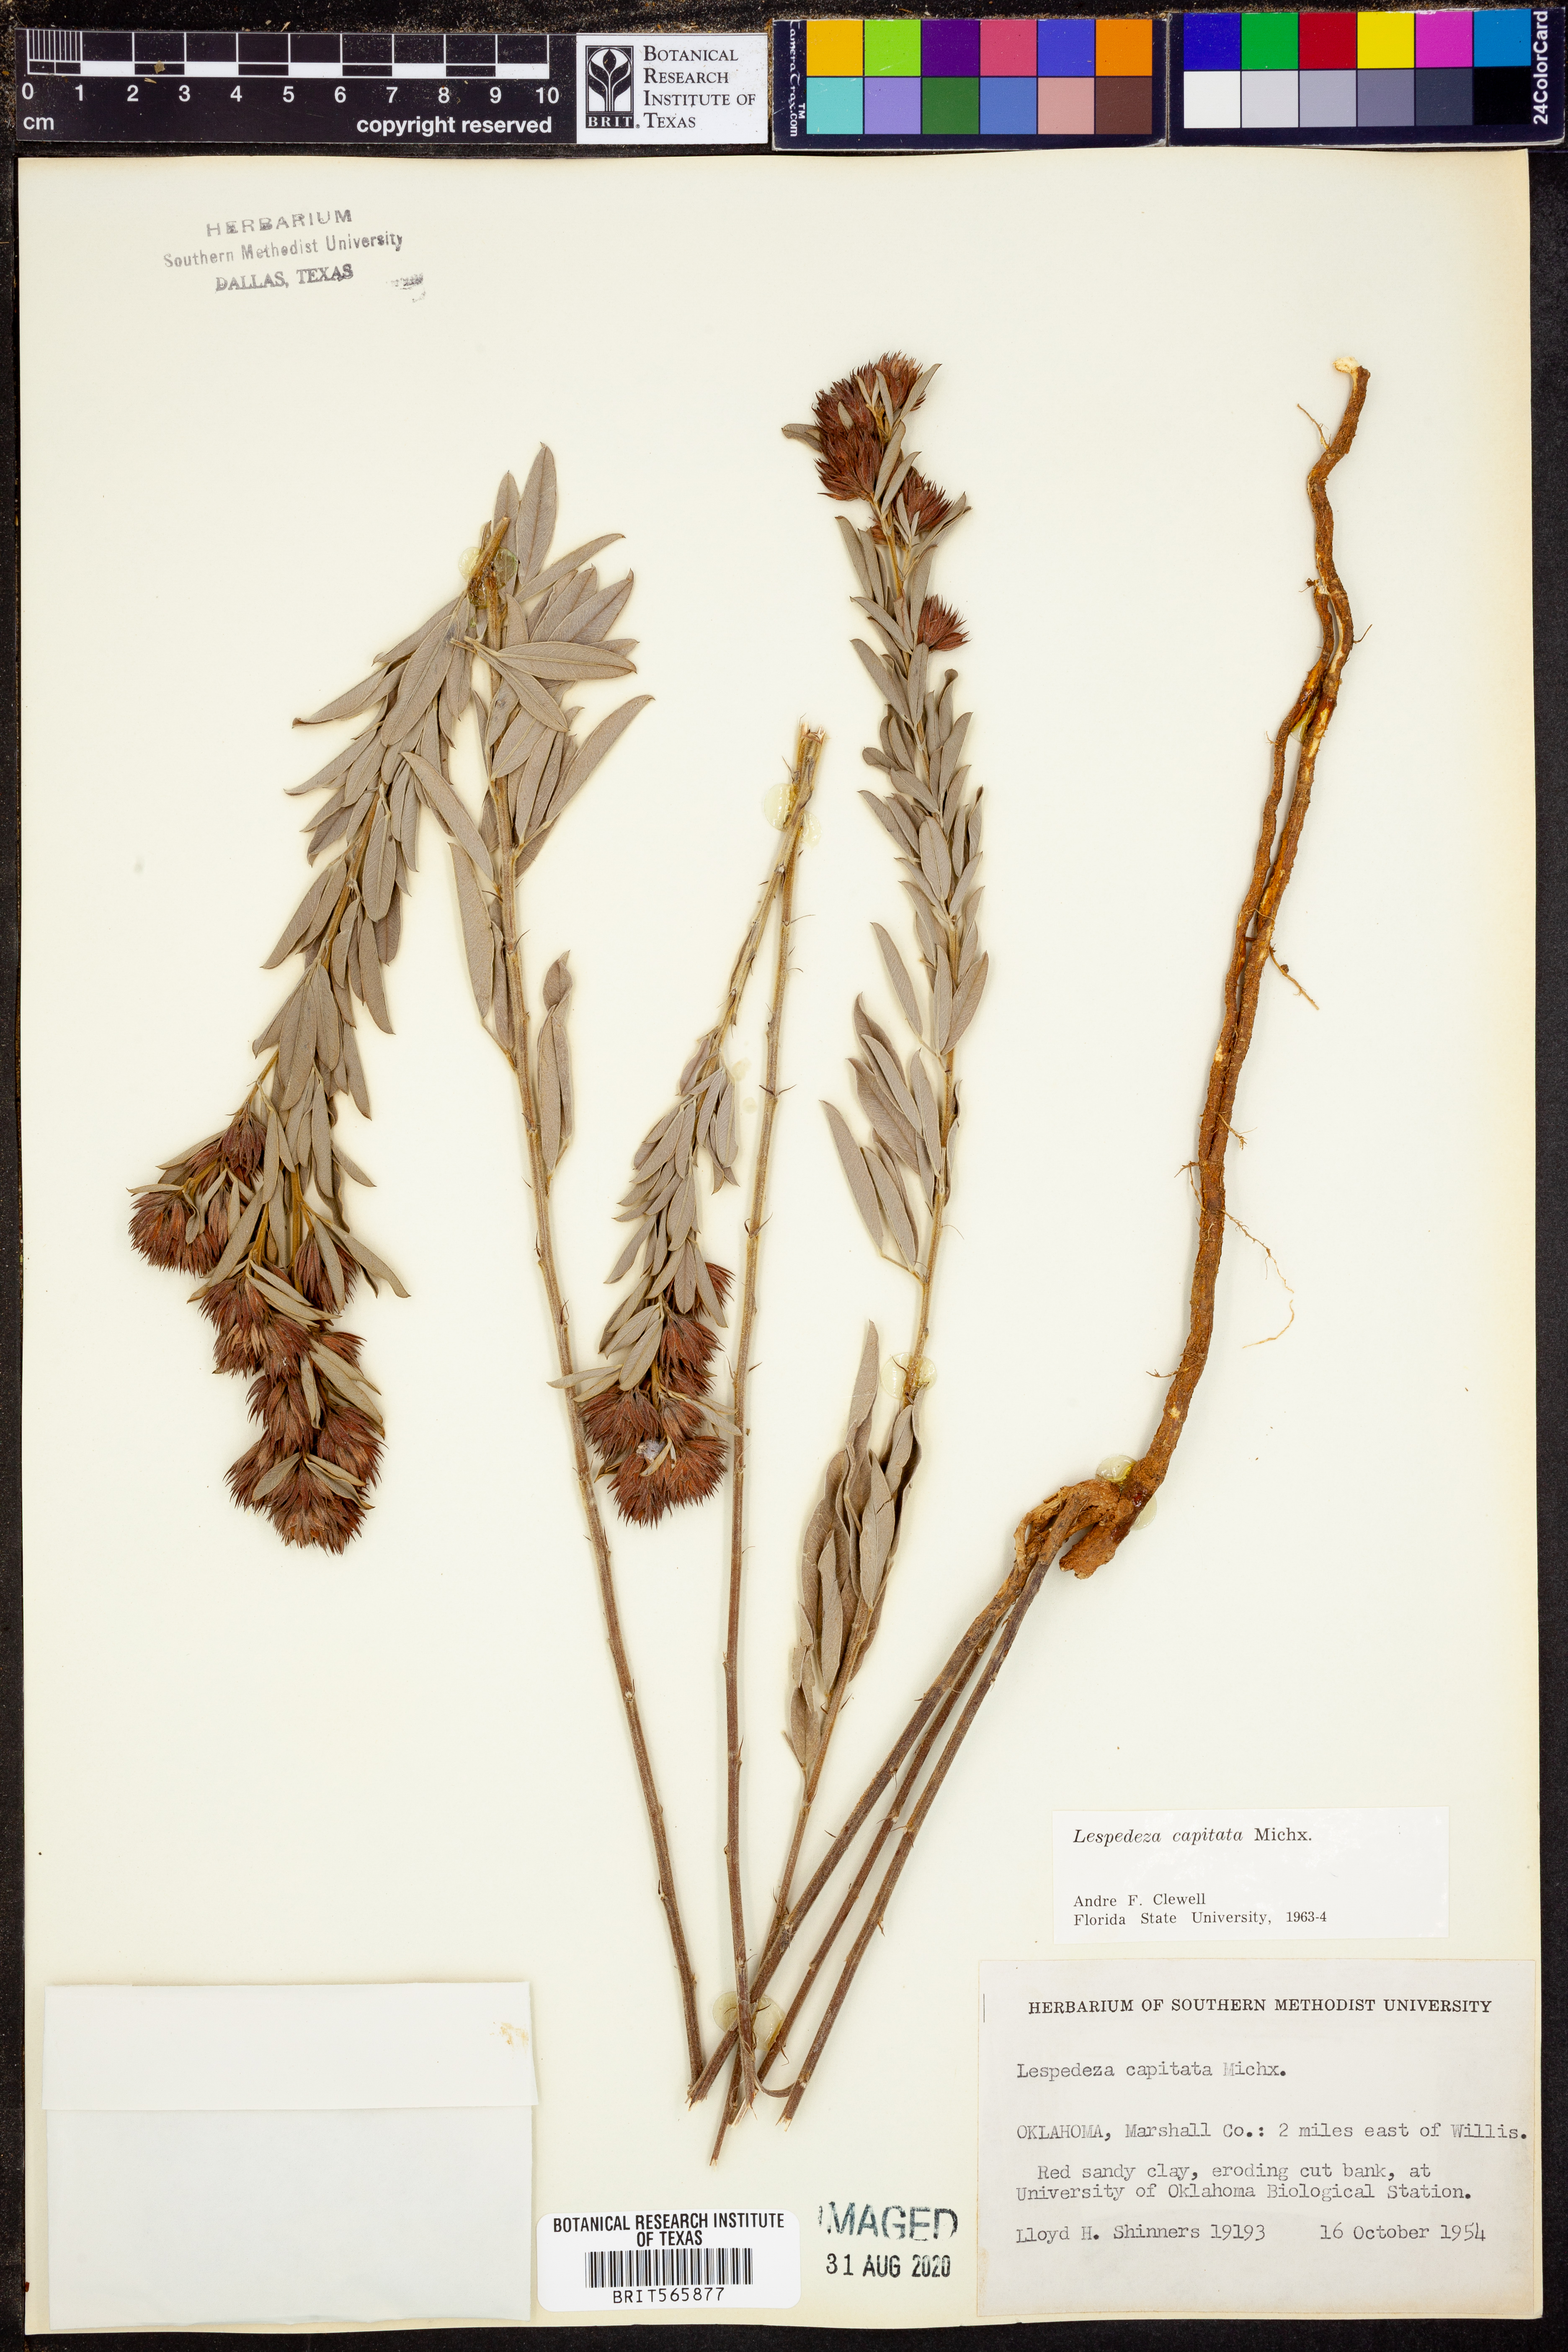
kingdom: Plantae
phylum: Tracheophyta
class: Magnoliopsida
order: Fabales
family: Fabaceae
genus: Lespedeza
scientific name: Lespedeza capitata
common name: Dusty clover
